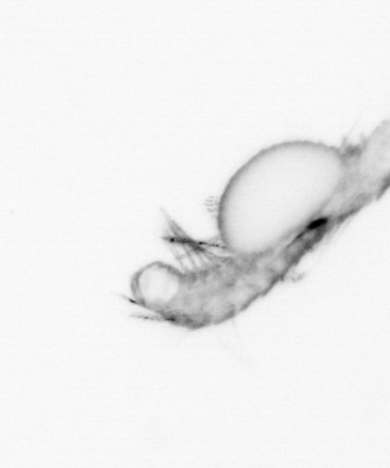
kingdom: Animalia
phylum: Annelida
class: Polychaeta
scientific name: Polychaeta
